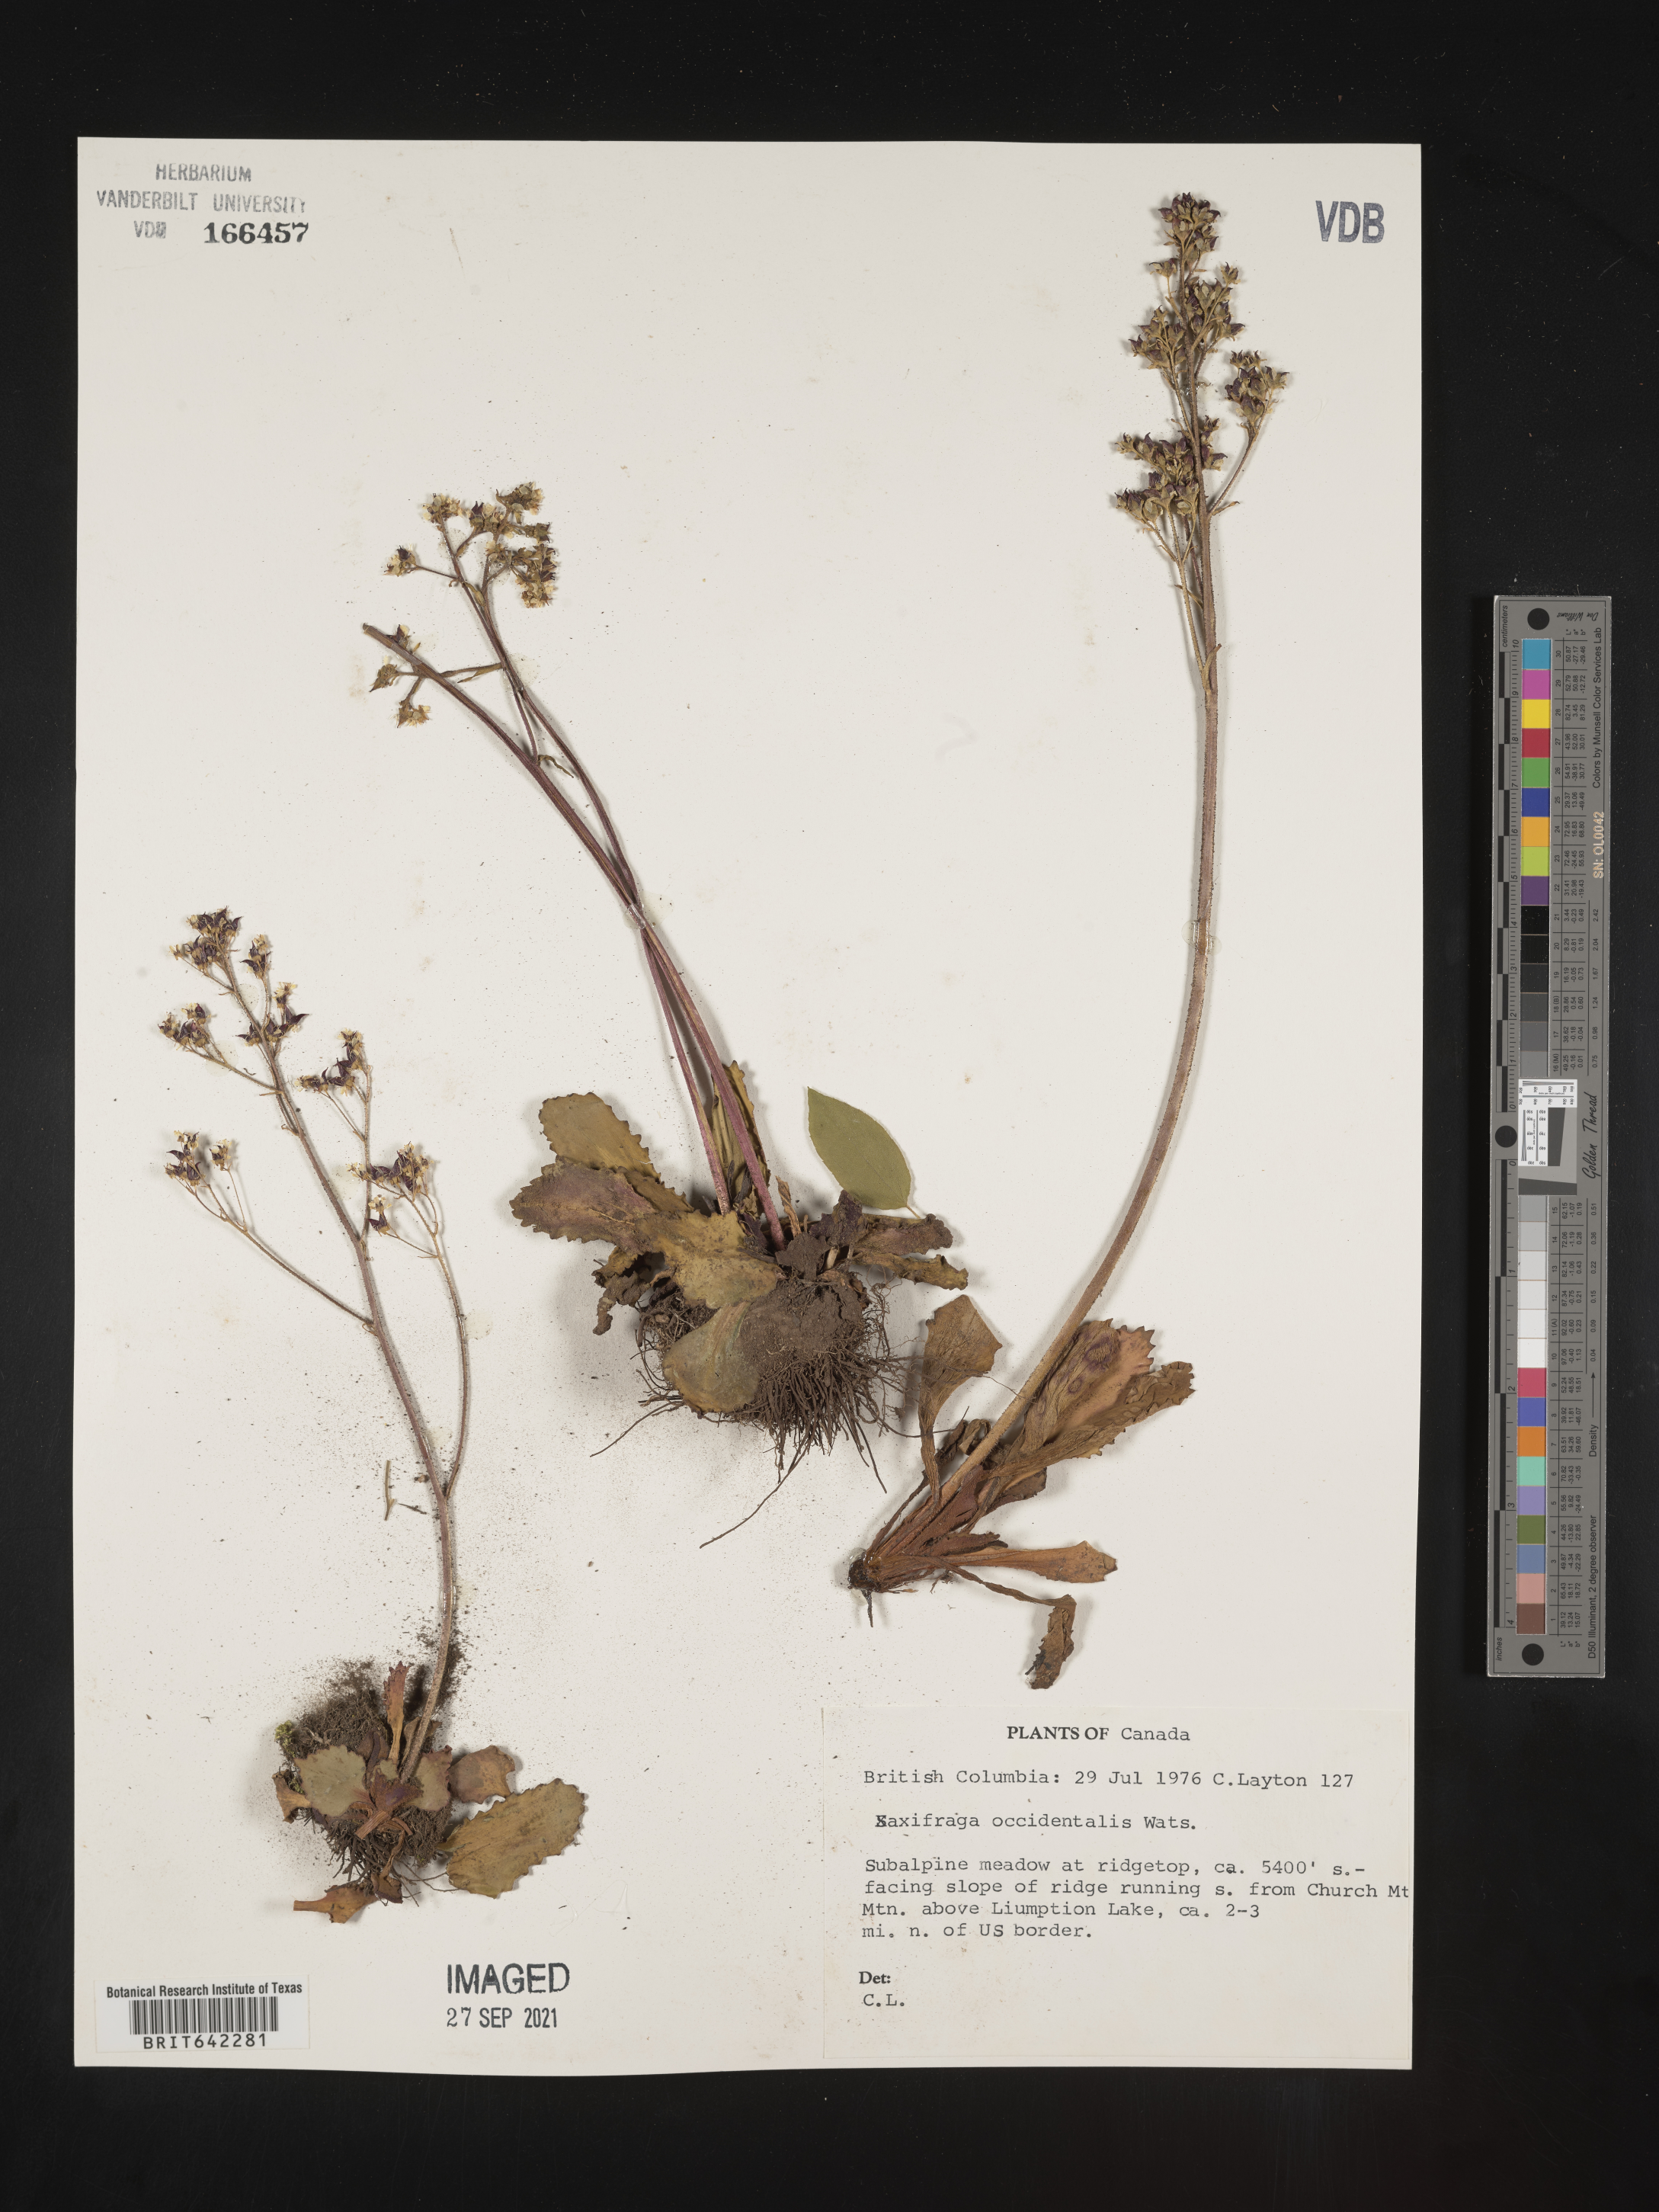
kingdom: Plantae
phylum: Tracheophyta
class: Magnoliopsida
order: Saxifragales
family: Saxifragaceae
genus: Saxifraga
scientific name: Saxifraga
